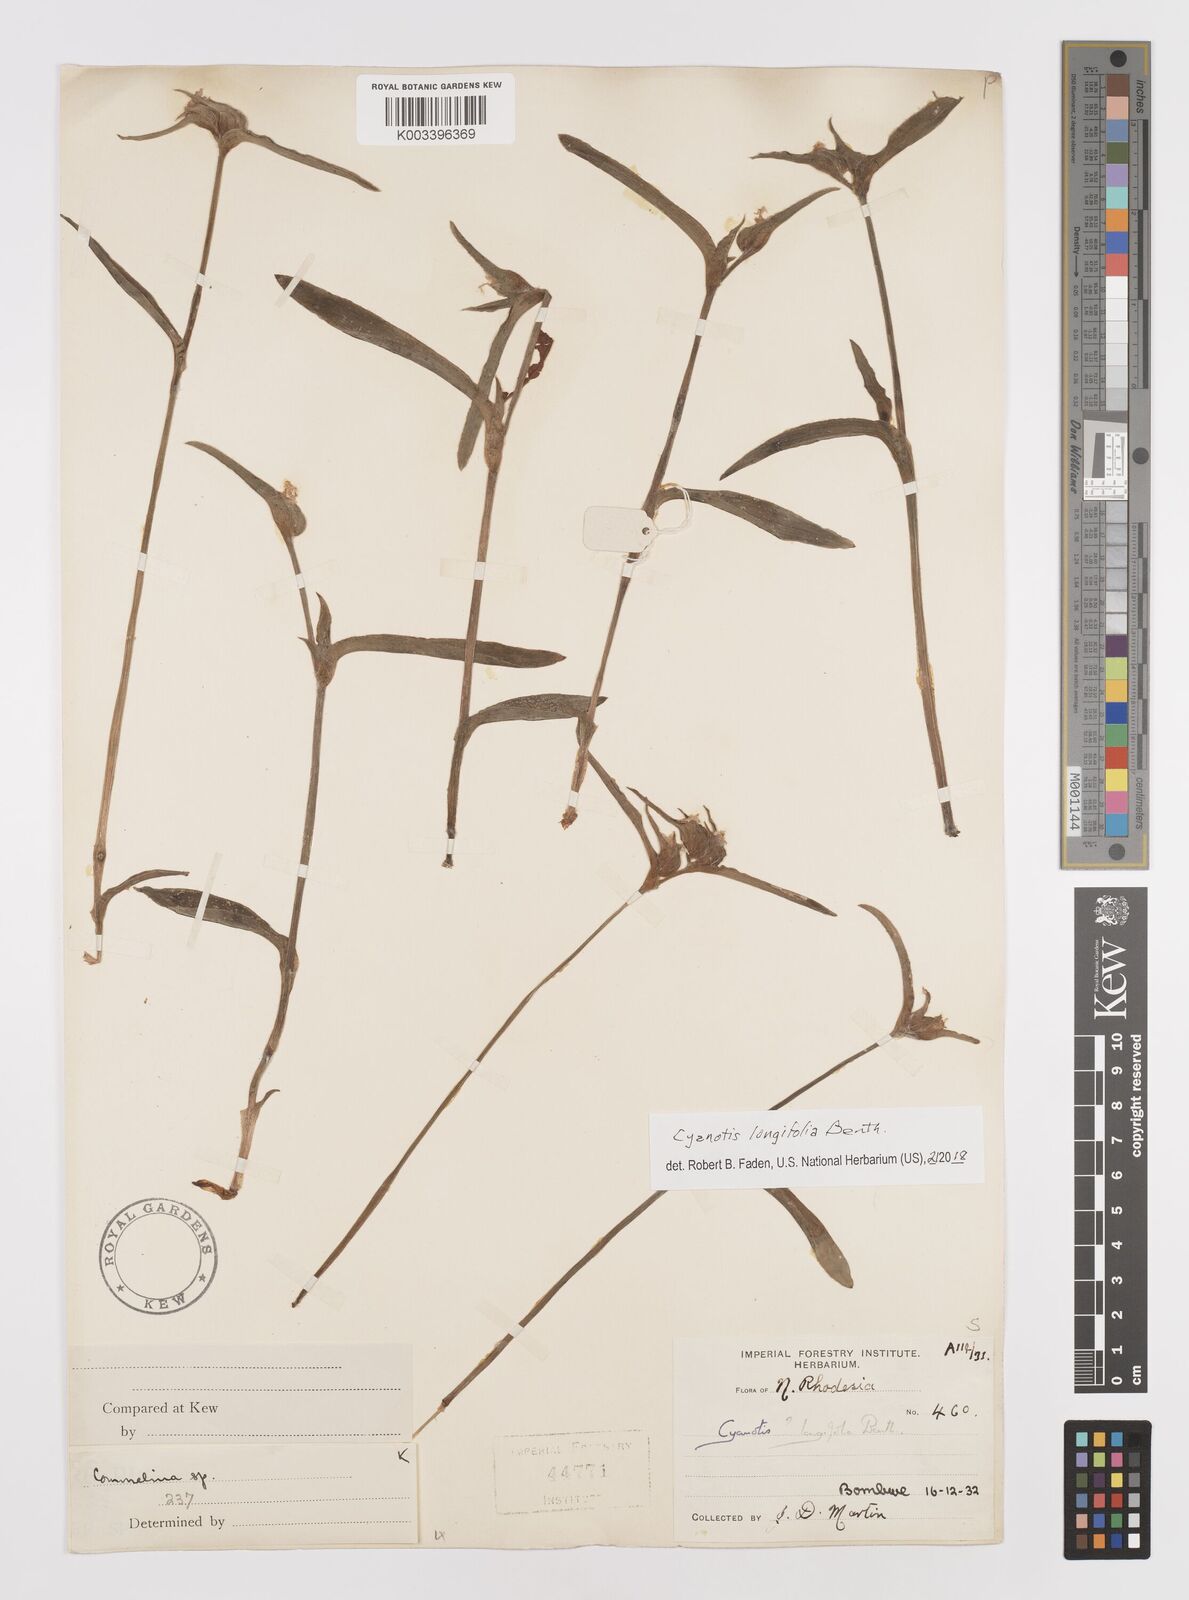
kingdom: Plantae
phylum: Tracheophyta
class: Liliopsida
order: Commelinales
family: Commelinaceae
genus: Cyanotis
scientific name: Cyanotis longifolia
